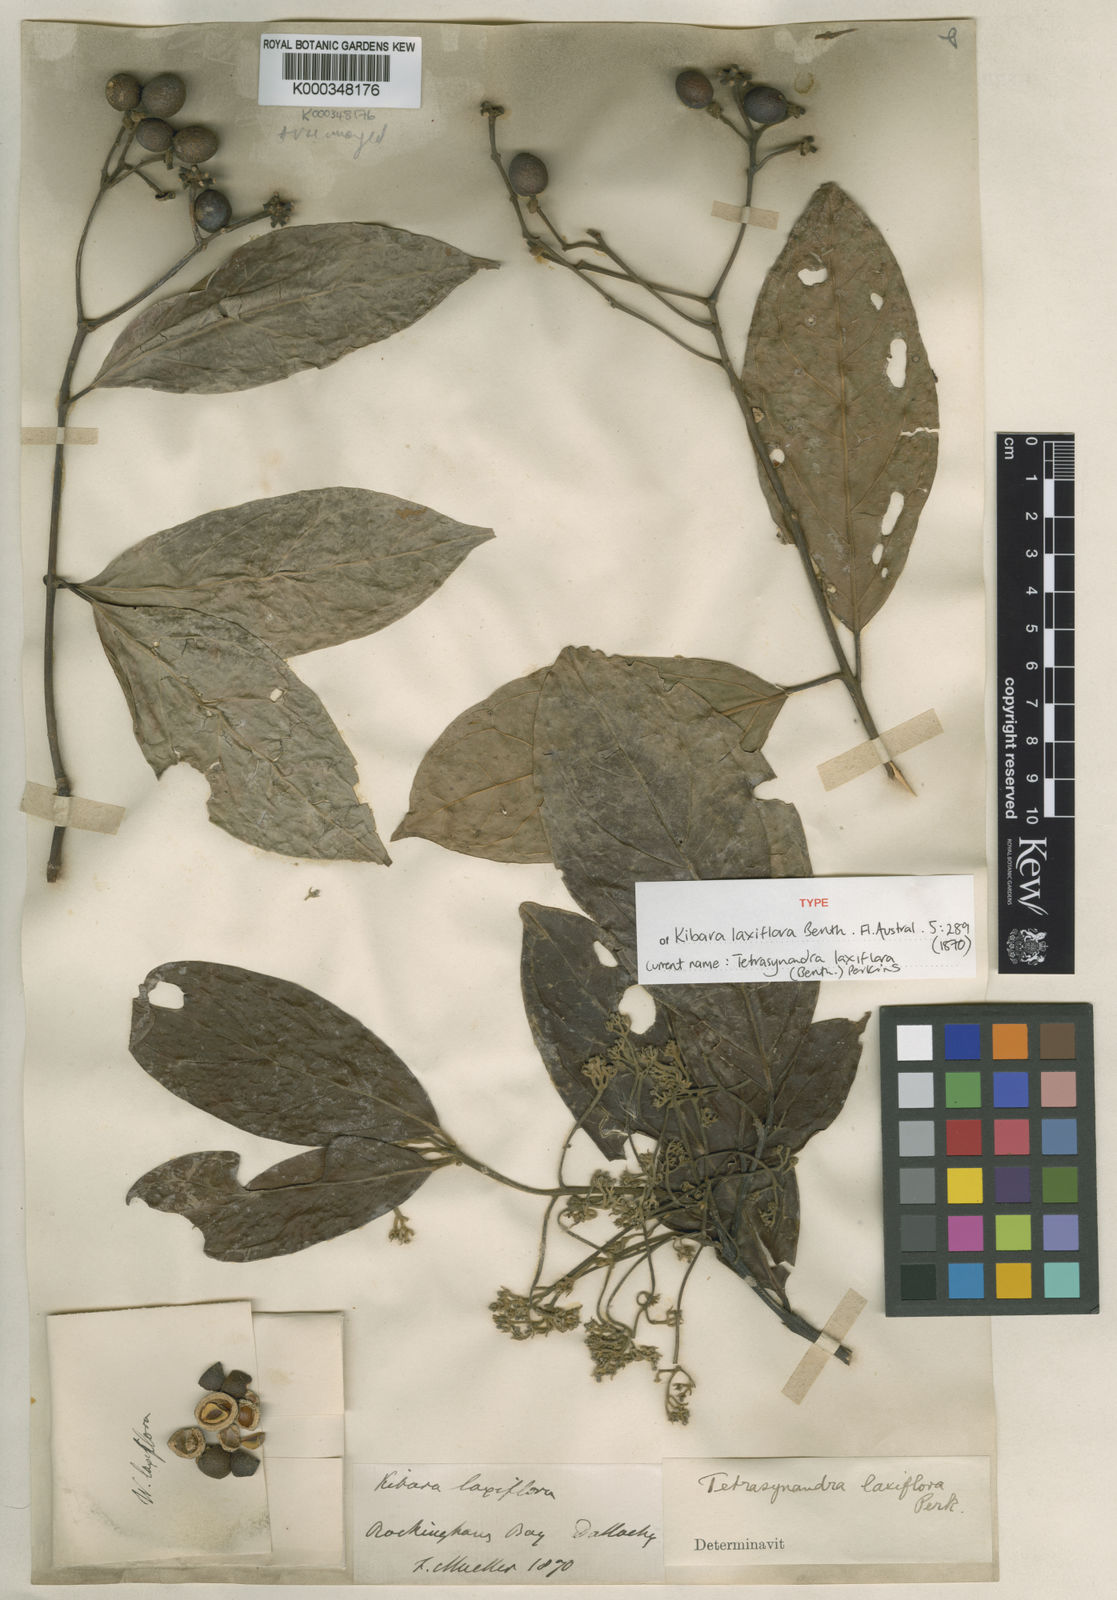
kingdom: Plantae
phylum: Tracheophyta
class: Magnoliopsida
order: Laurales
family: Monimiaceae
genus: Steganthera
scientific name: Steganthera laxiflora
